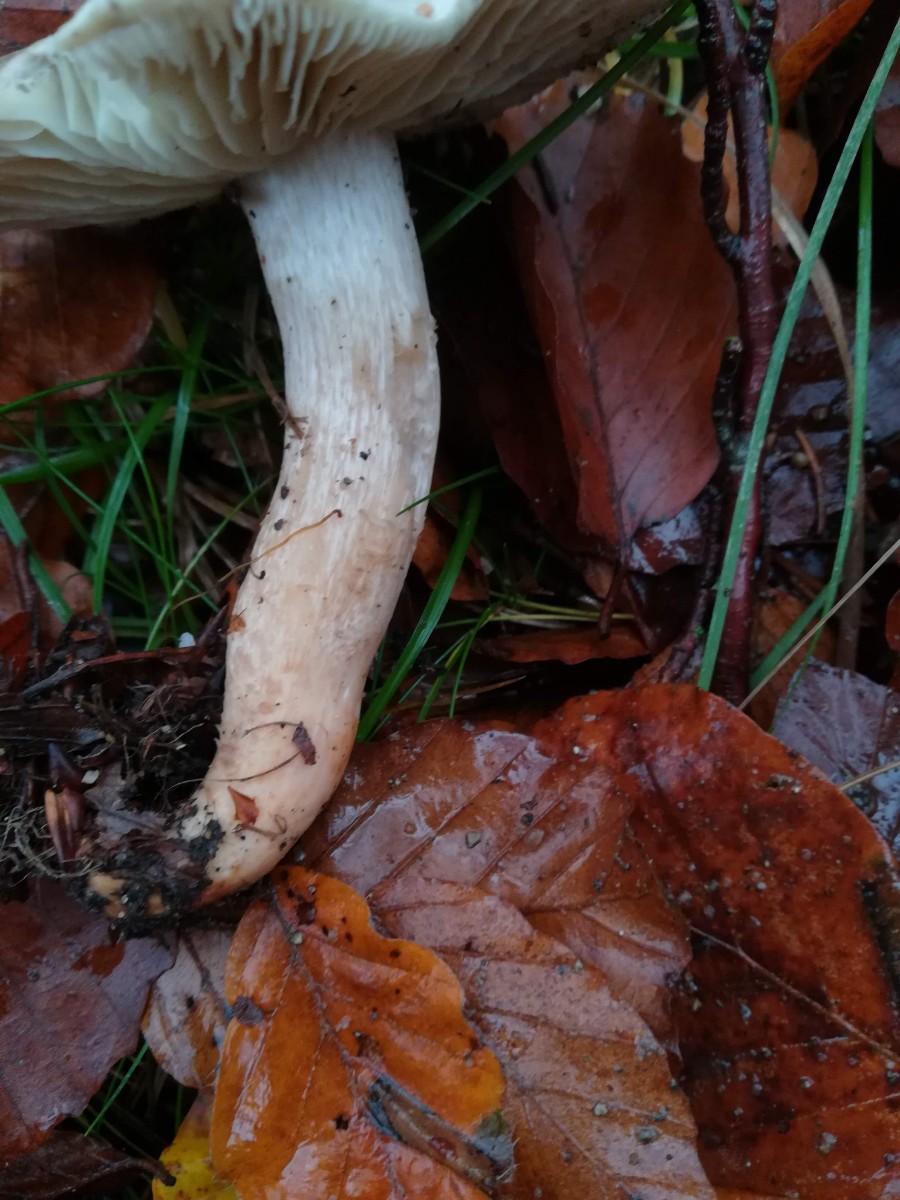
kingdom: Fungi
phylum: Basidiomycota
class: Agaricomycetes
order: Agaricales
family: Tricholomataceae
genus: Tricholoma
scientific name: Tricholoma saponaceum
